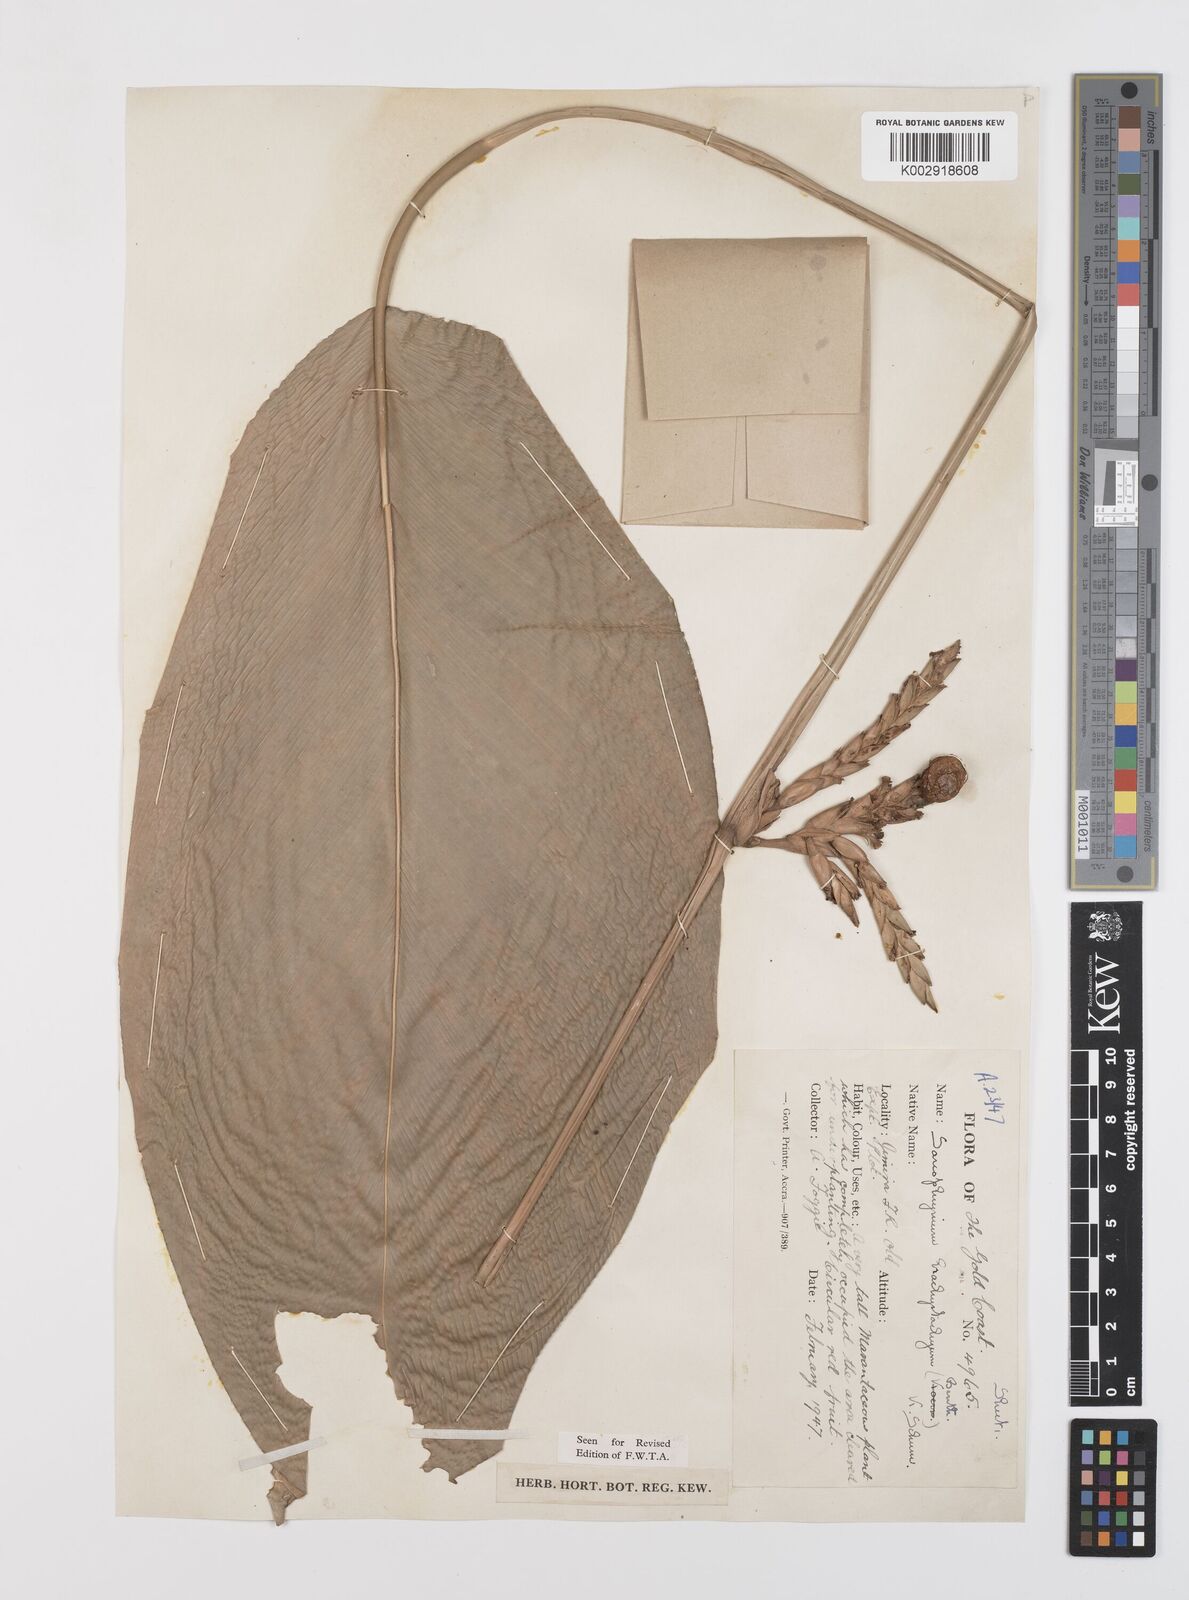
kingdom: Plantae
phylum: Tracheophyta
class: Liliopsida
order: Zingiberales
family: Marantaceae
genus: Sarcophrynium
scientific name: Sarcophrynium brachystachyum
